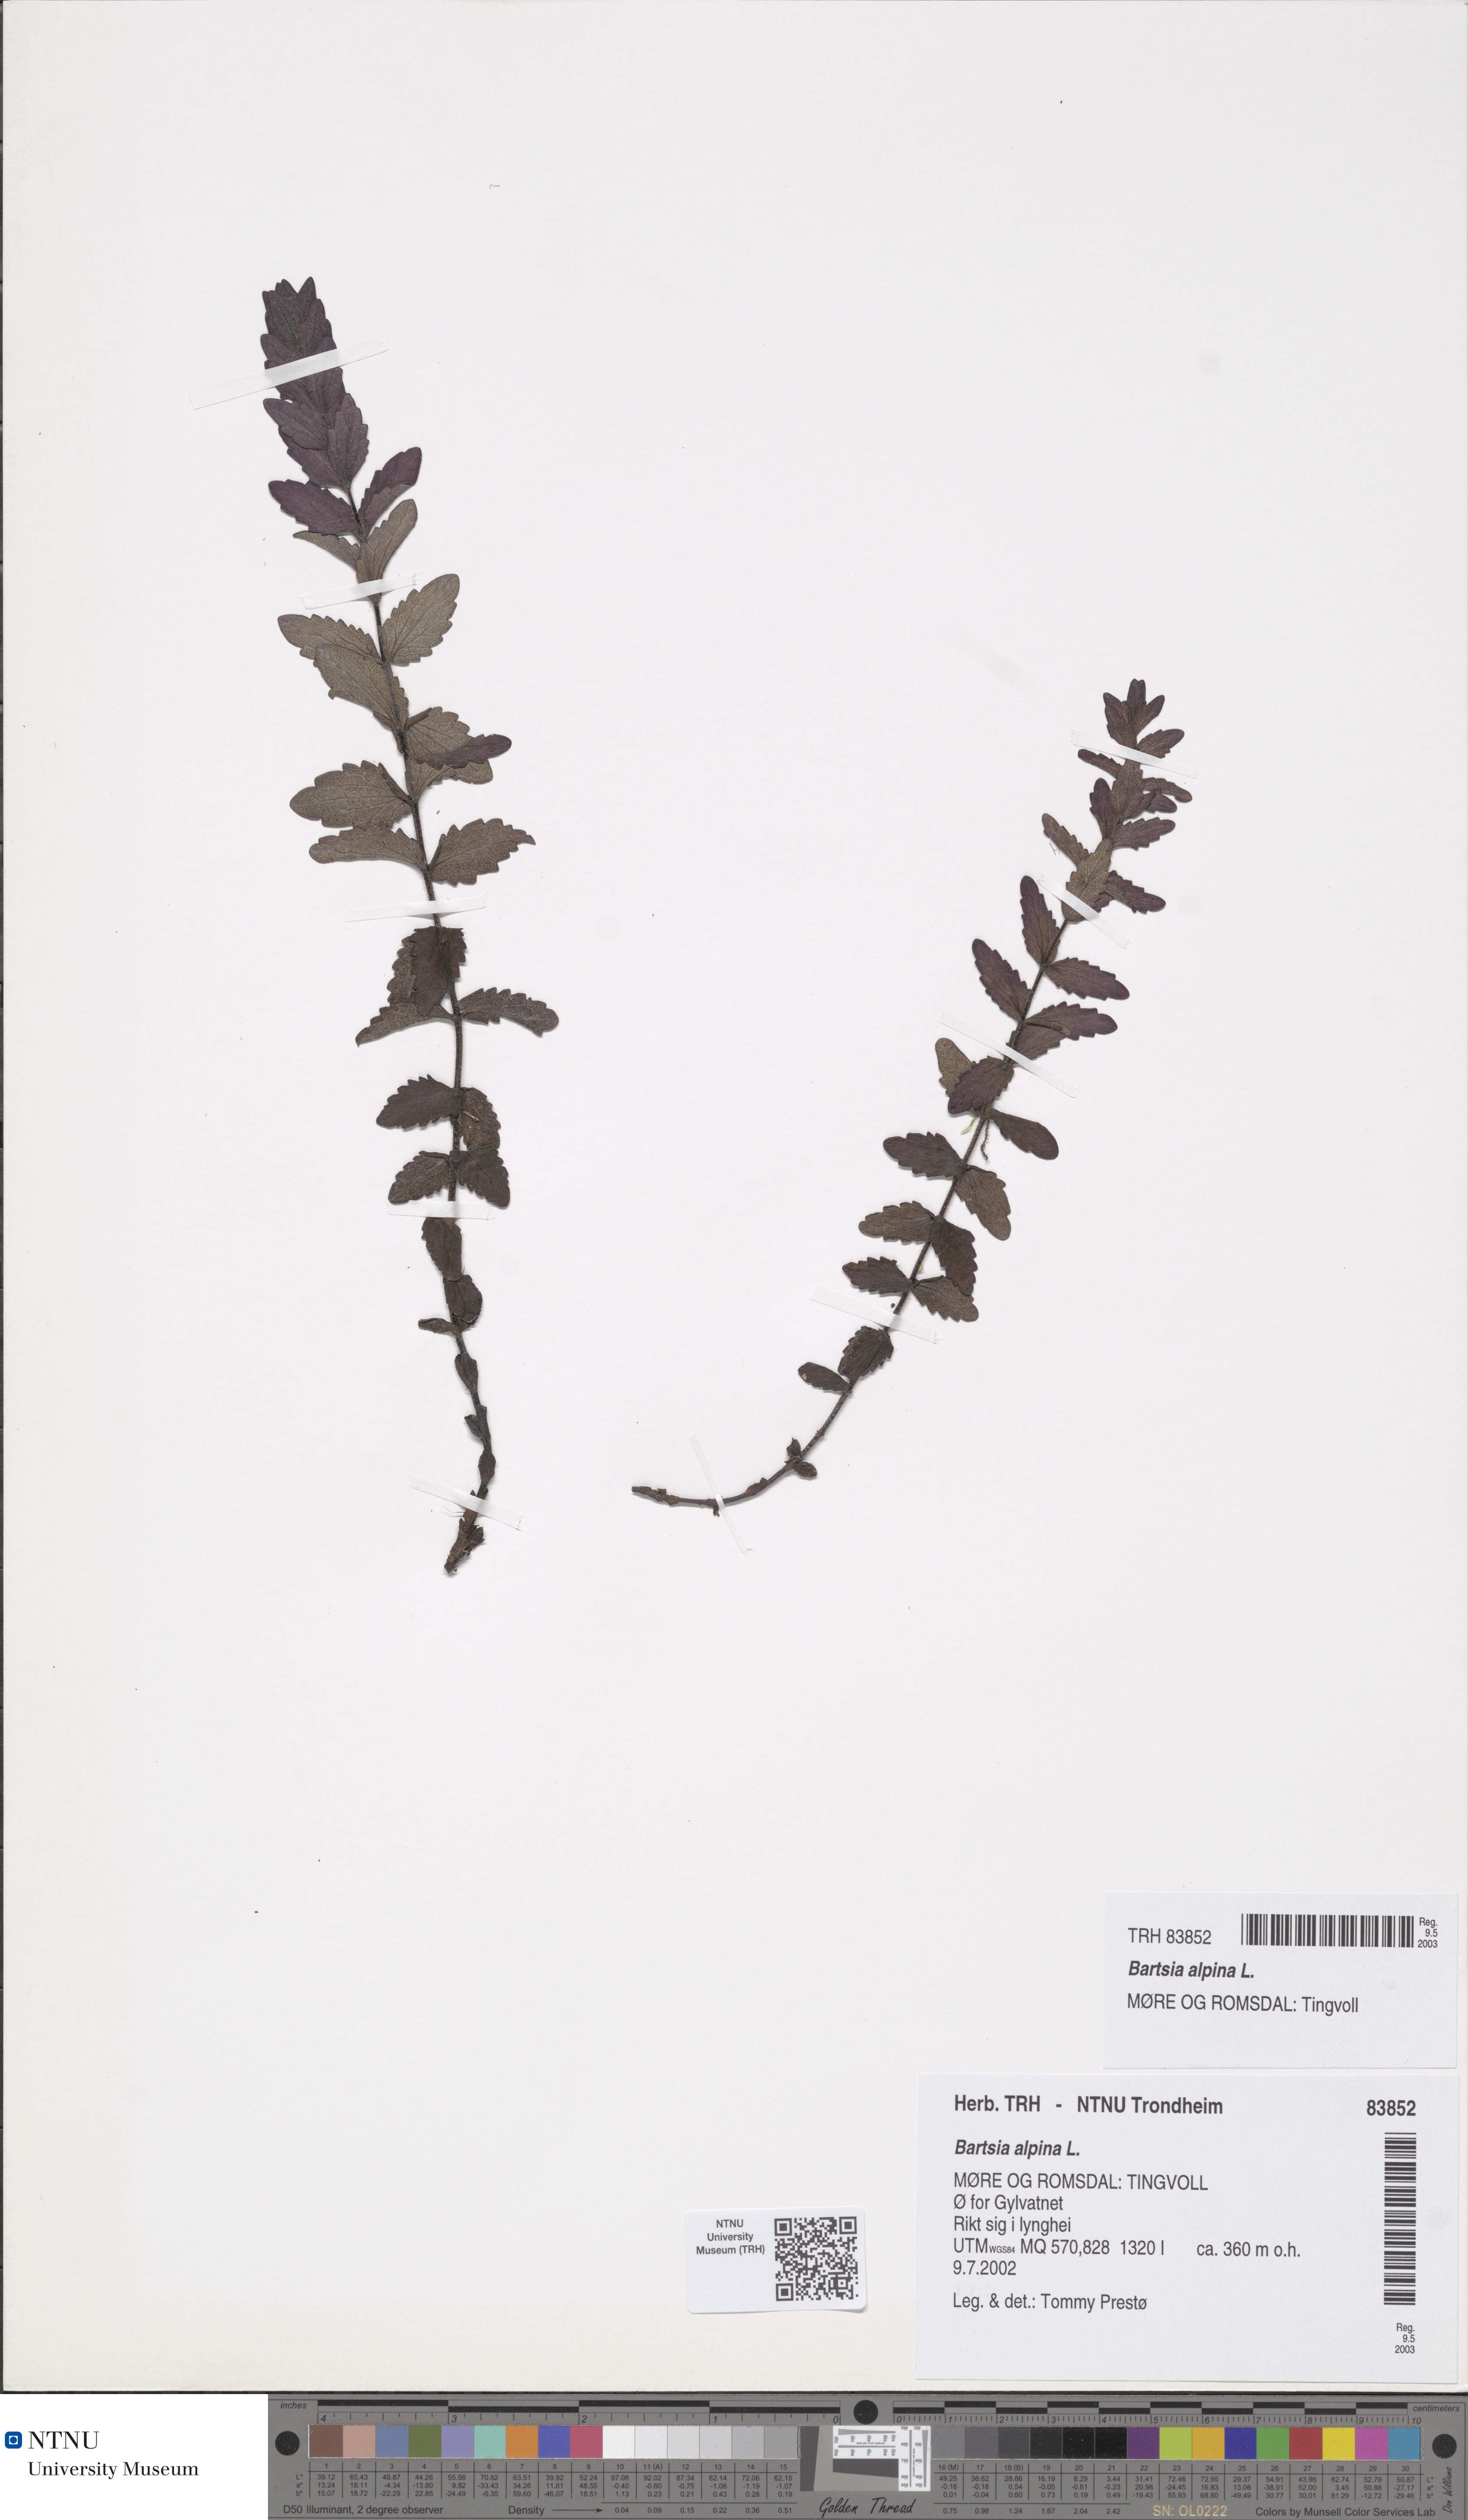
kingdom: Plantae
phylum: Tracheophyta
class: Magnoliopsida
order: Lamiales
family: Orobanchaceae
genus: Bartsia
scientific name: Bartsia alpina
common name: Alpine bartsia
